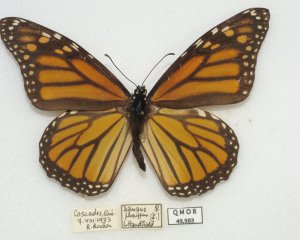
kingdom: Animalia
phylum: Arthropoda
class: Insecta
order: Lepidoptera
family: Nymphalidae
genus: Danaus
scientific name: Danaus plexippus
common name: Monarch
